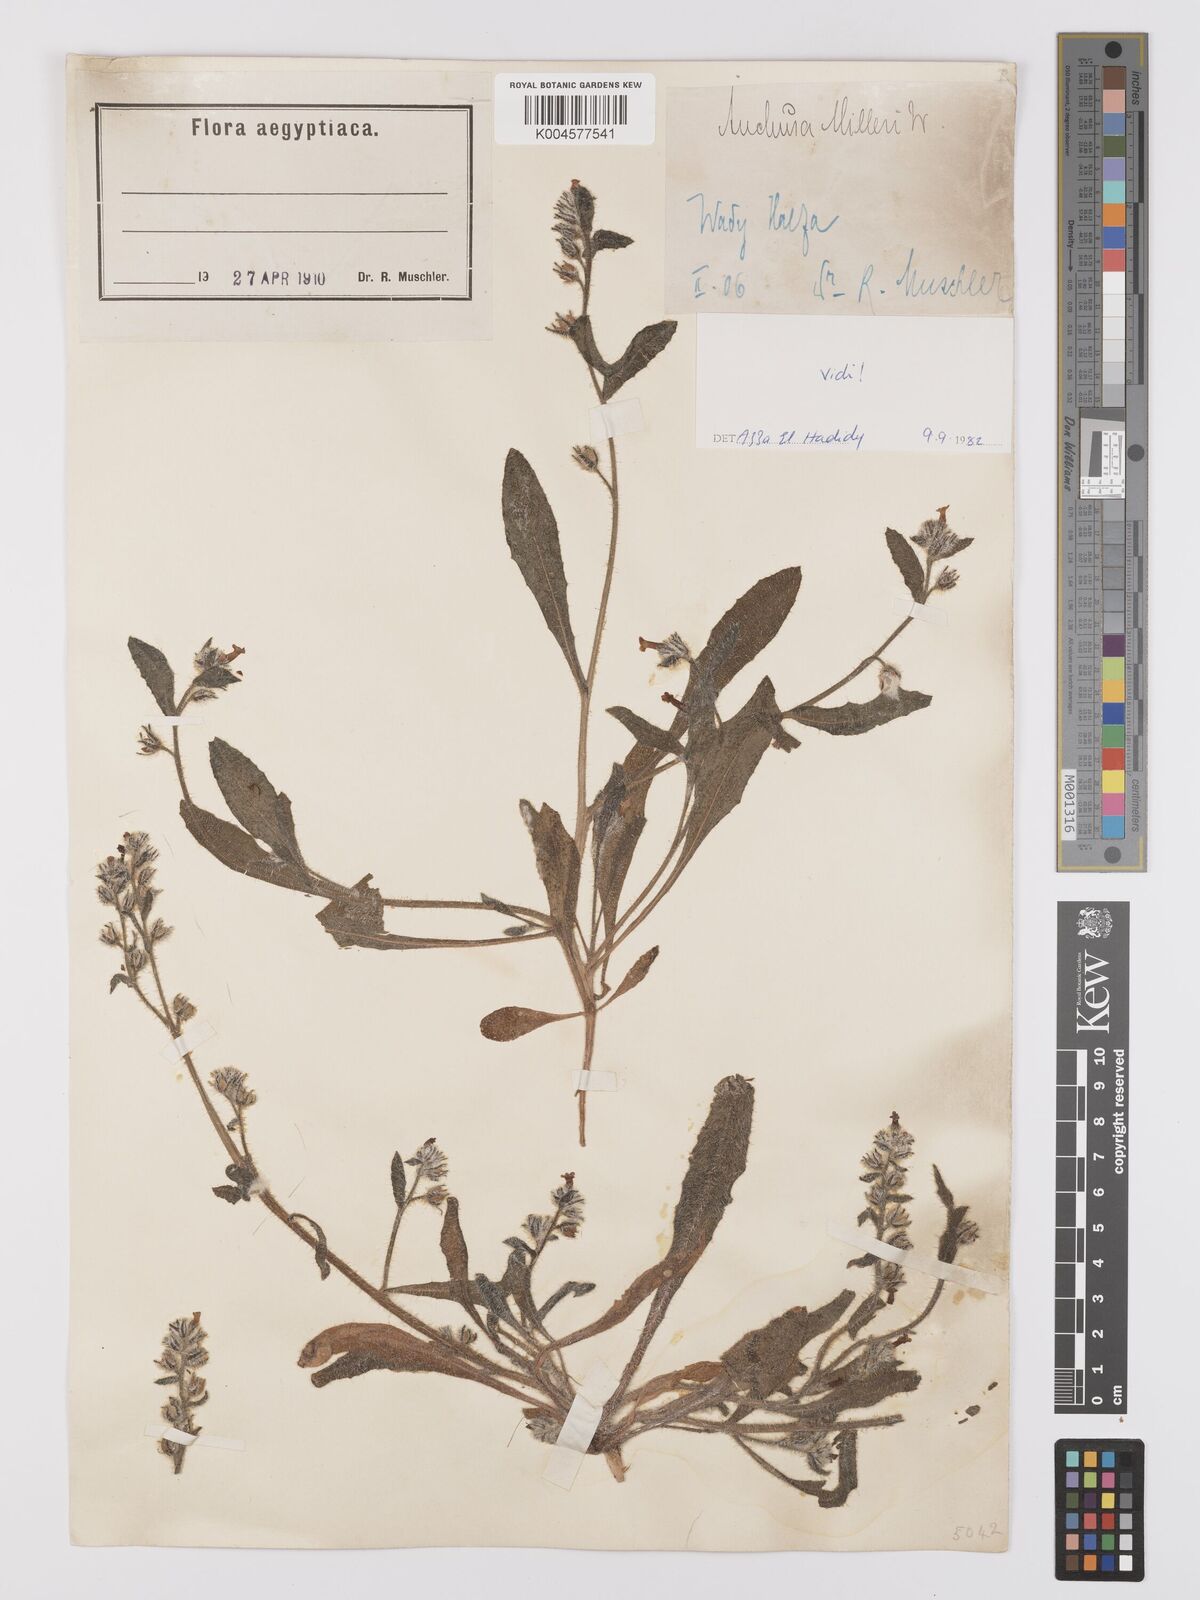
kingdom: Plantae
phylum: Tracheophyta
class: Magnoliopsida
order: Boraginales
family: Boraginaceae
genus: Anchusa
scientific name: Anchusa milleri
